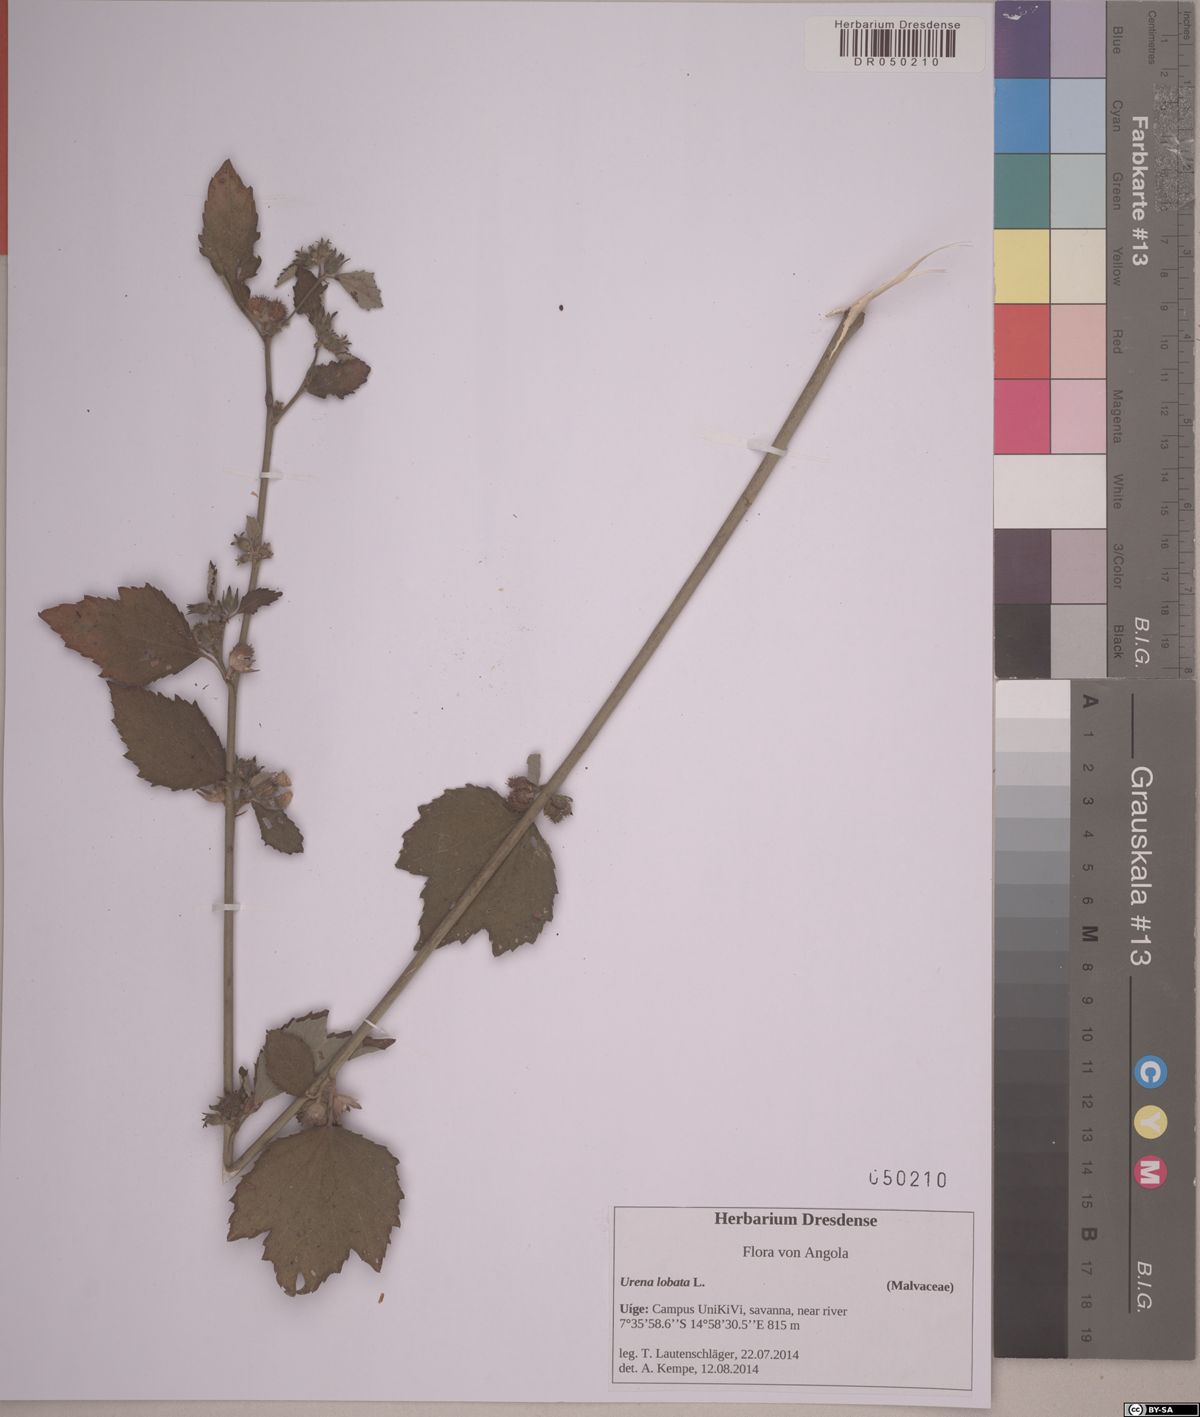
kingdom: Plantae
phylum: Tracheophyta
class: Magnoliopsida
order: Malvales
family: Malvaceae
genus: Urena
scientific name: Urena lobata
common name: Caesarweed
